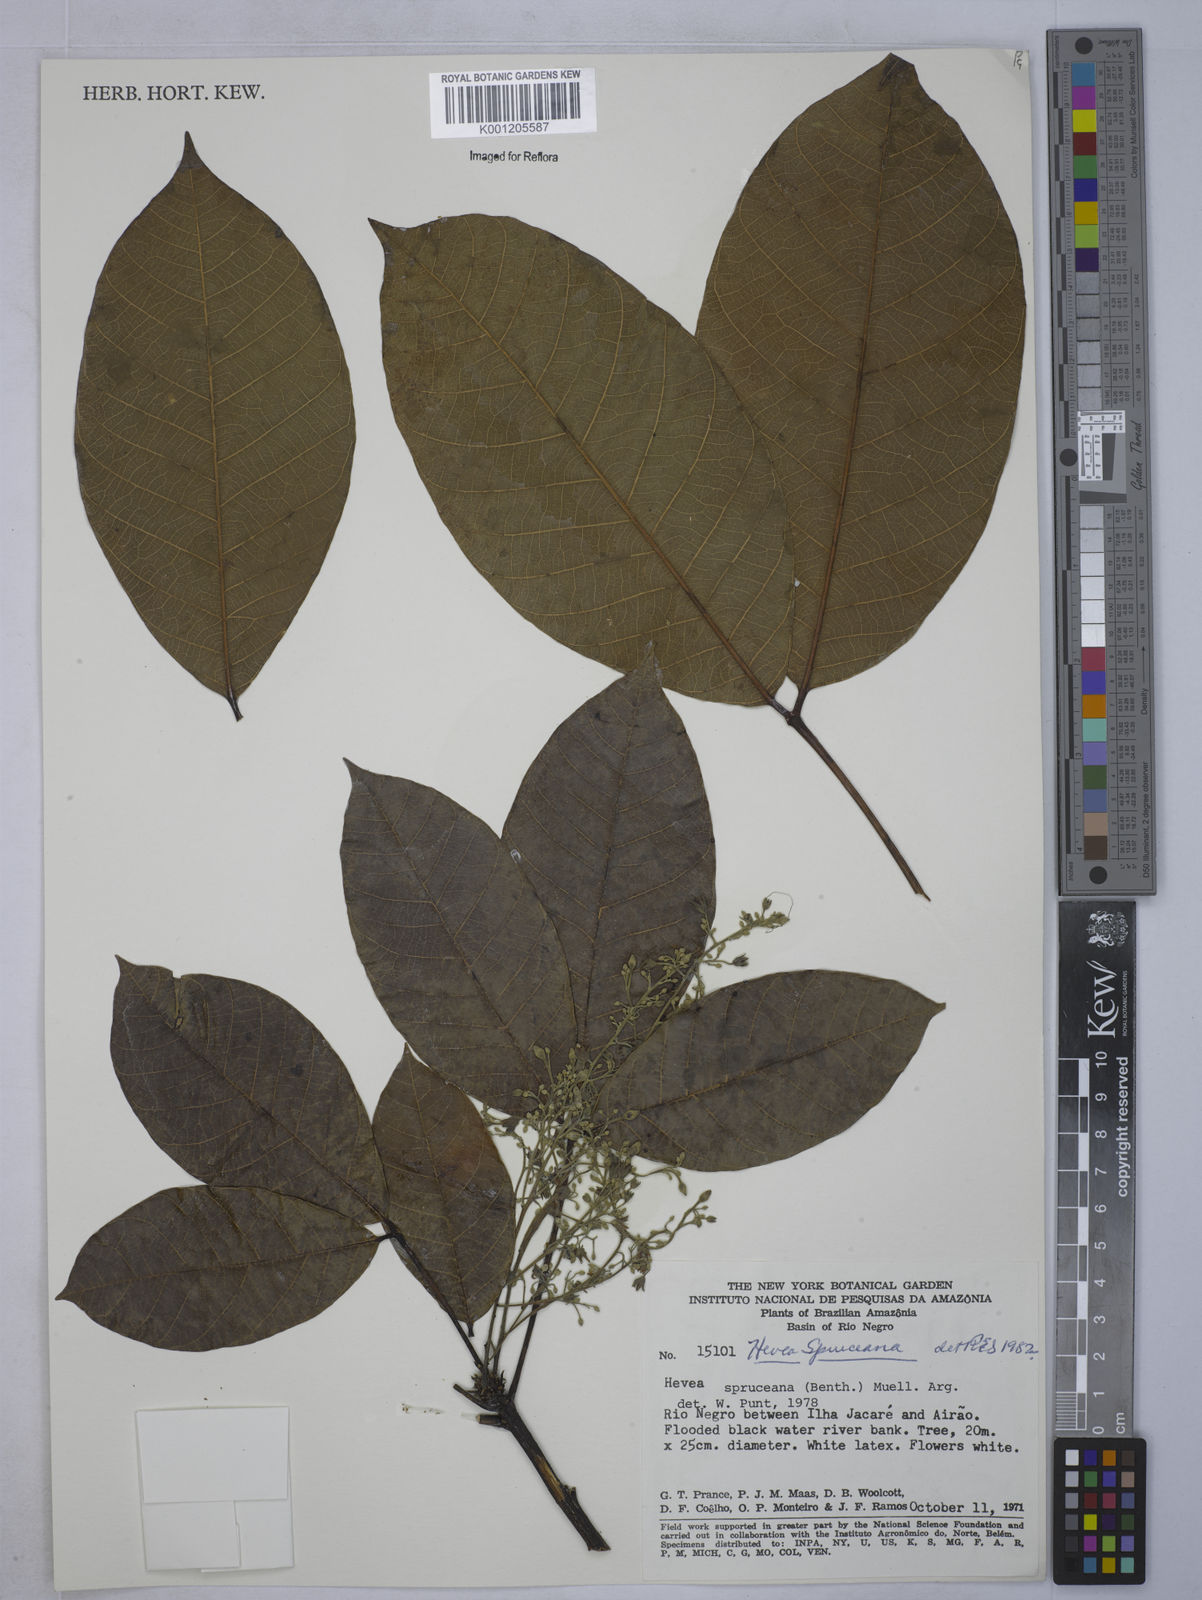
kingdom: Plantae
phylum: Tracheophyta
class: Magnoliopsida
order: Malpighiales
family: Euphorbiaceae
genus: Hevea
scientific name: Hevea
